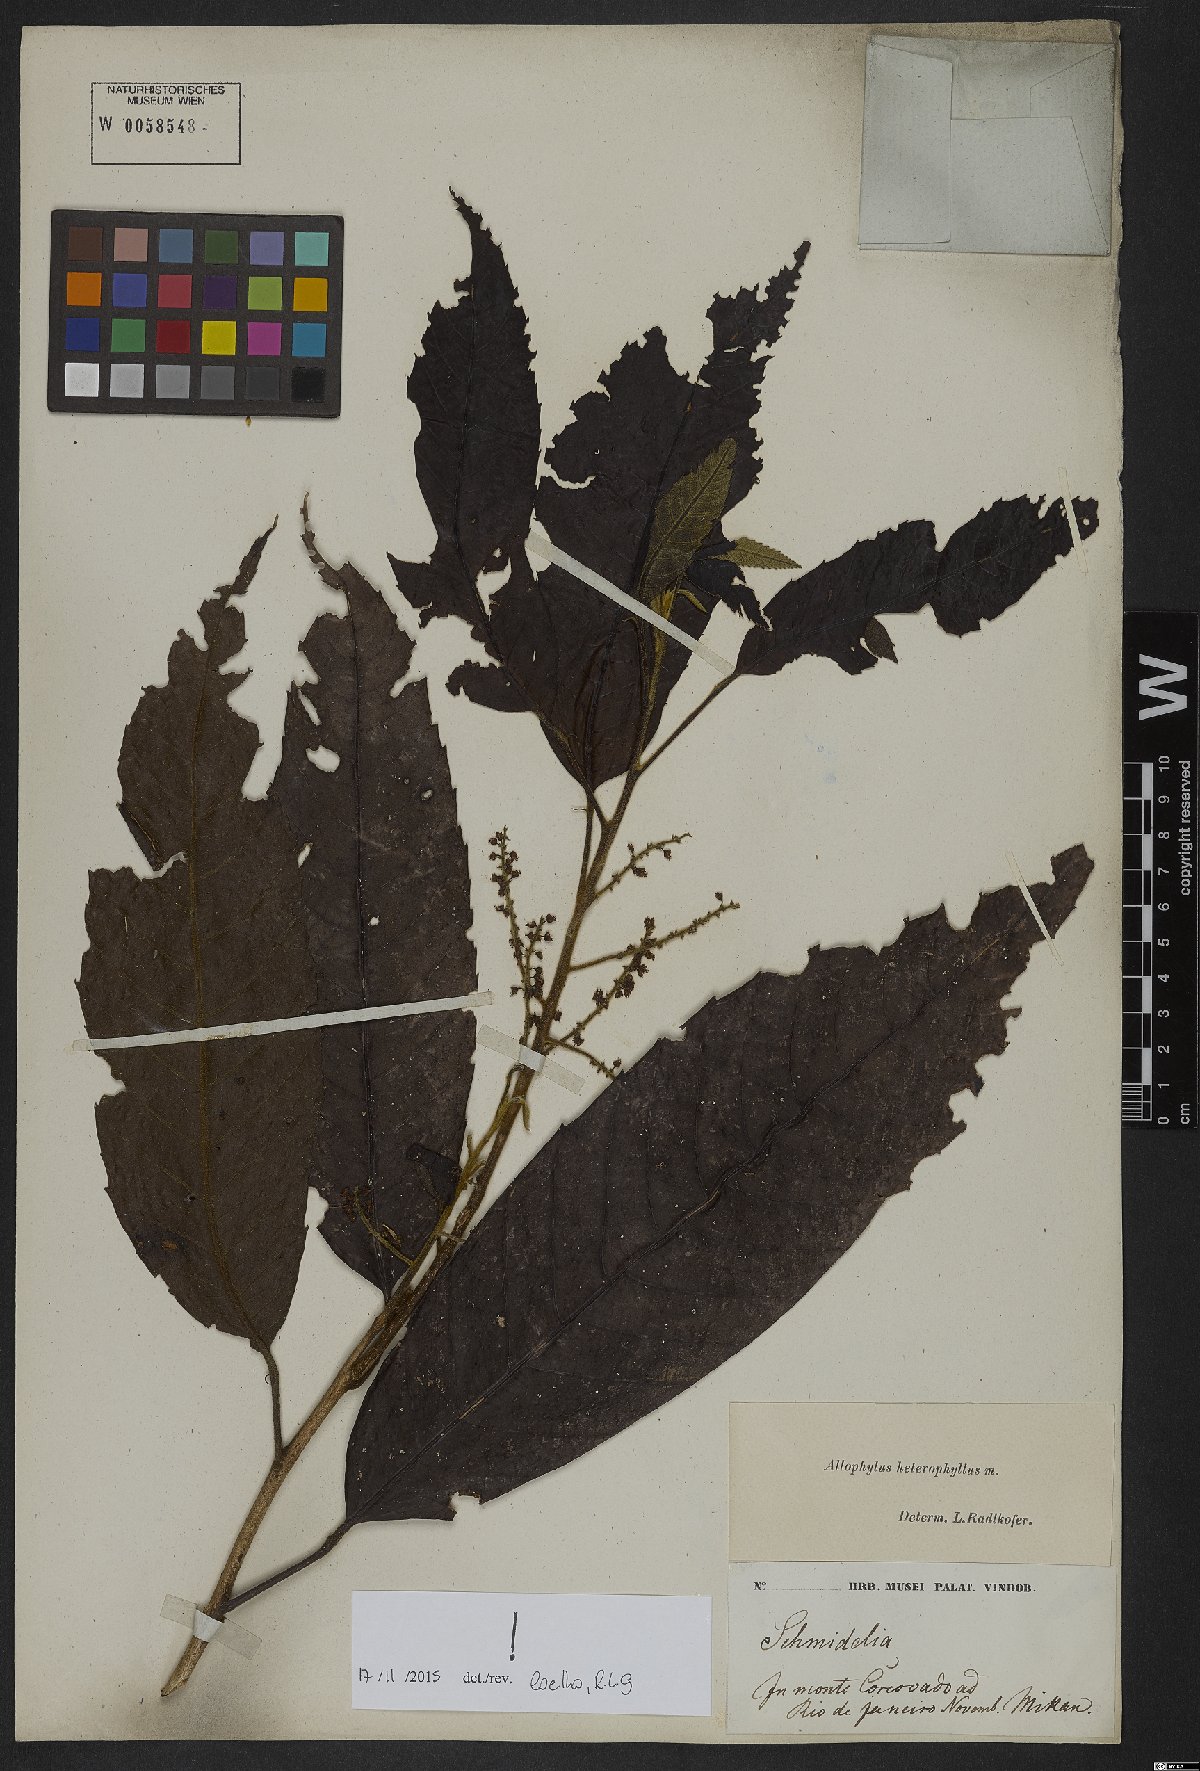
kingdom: Plantae
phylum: Tracheophyta
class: Magnoliopsida
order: Sapindales
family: Sapindaceae
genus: Allophylus
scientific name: Allophylus heterophyllus
